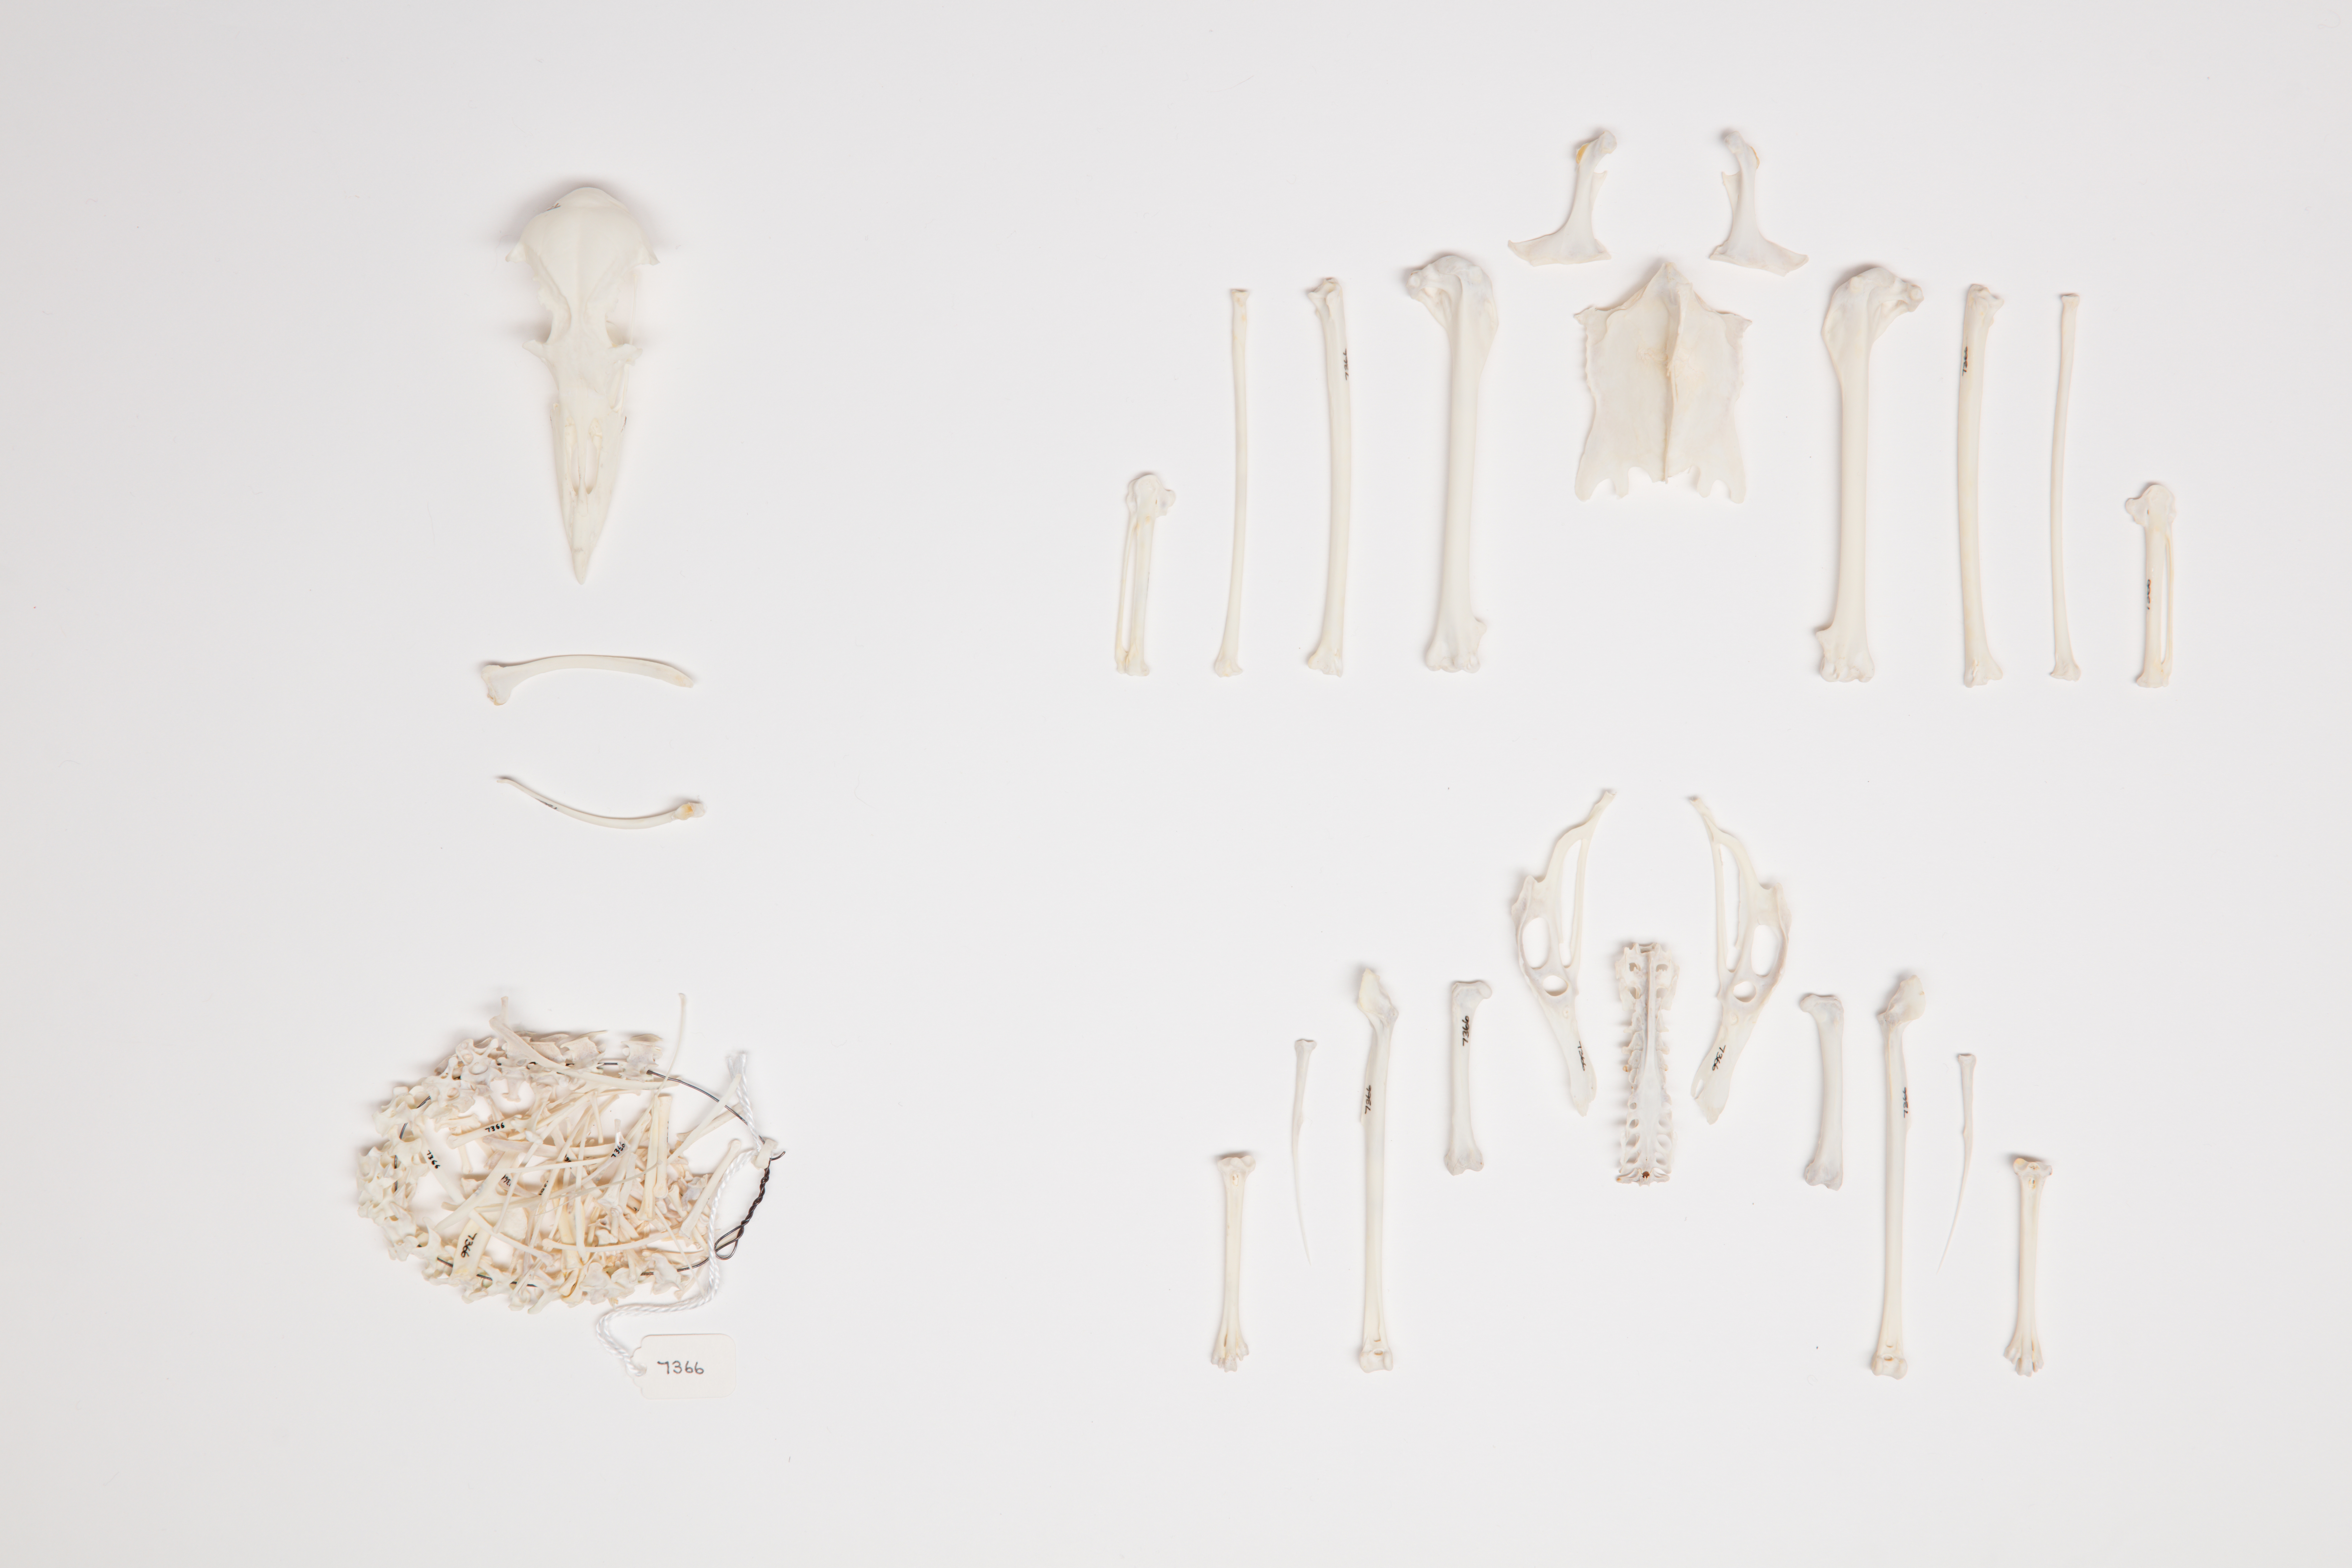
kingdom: Animalia
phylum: Chordata
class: Aves
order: Procellariiformes
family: Procellariidae
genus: Daption
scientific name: Daption capense
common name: Cape petrel
